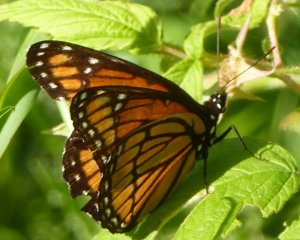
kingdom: Animalia
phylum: Arthropoda
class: Insecta
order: Lepidoptera
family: Nymphalidae
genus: Limenitis
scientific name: Limenitis archippus
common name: Viceroy
